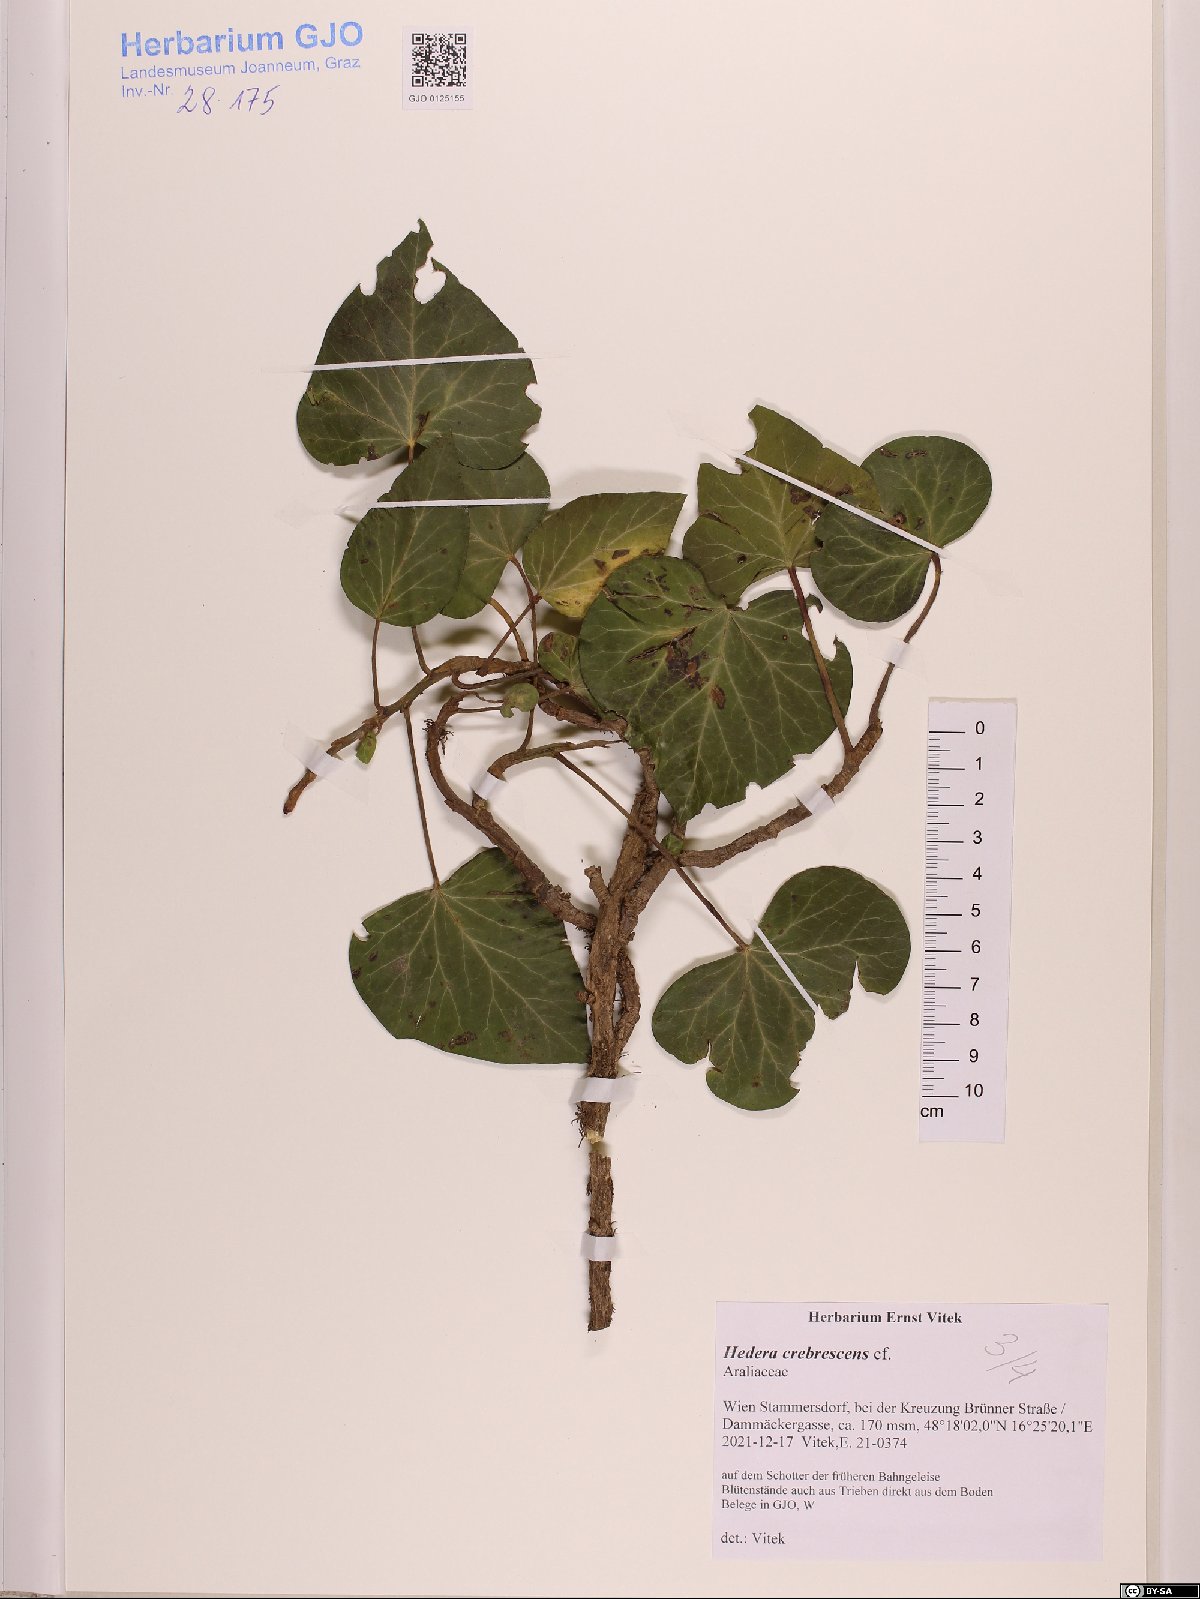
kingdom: Plantae
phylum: Tracheophyta
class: Magnoliopsida
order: Apiales
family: Araliaceae
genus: Hedera
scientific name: Hedera crebrescens
